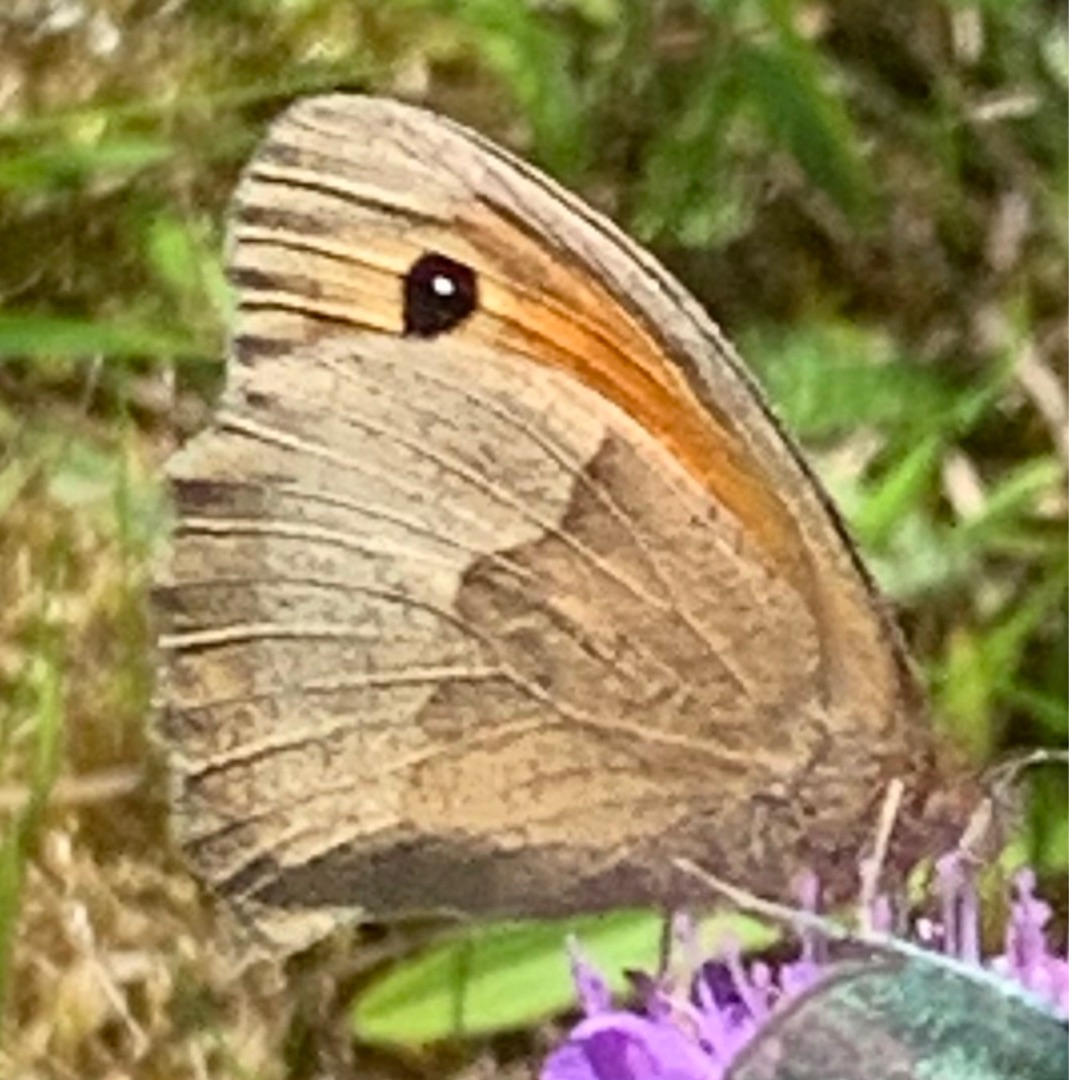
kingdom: Animalia
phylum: Arthropoda
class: Insecta
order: Lepidoptera
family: Nymphalidae
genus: Maniola
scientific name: Maniola jurtina
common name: Græsrandøje
